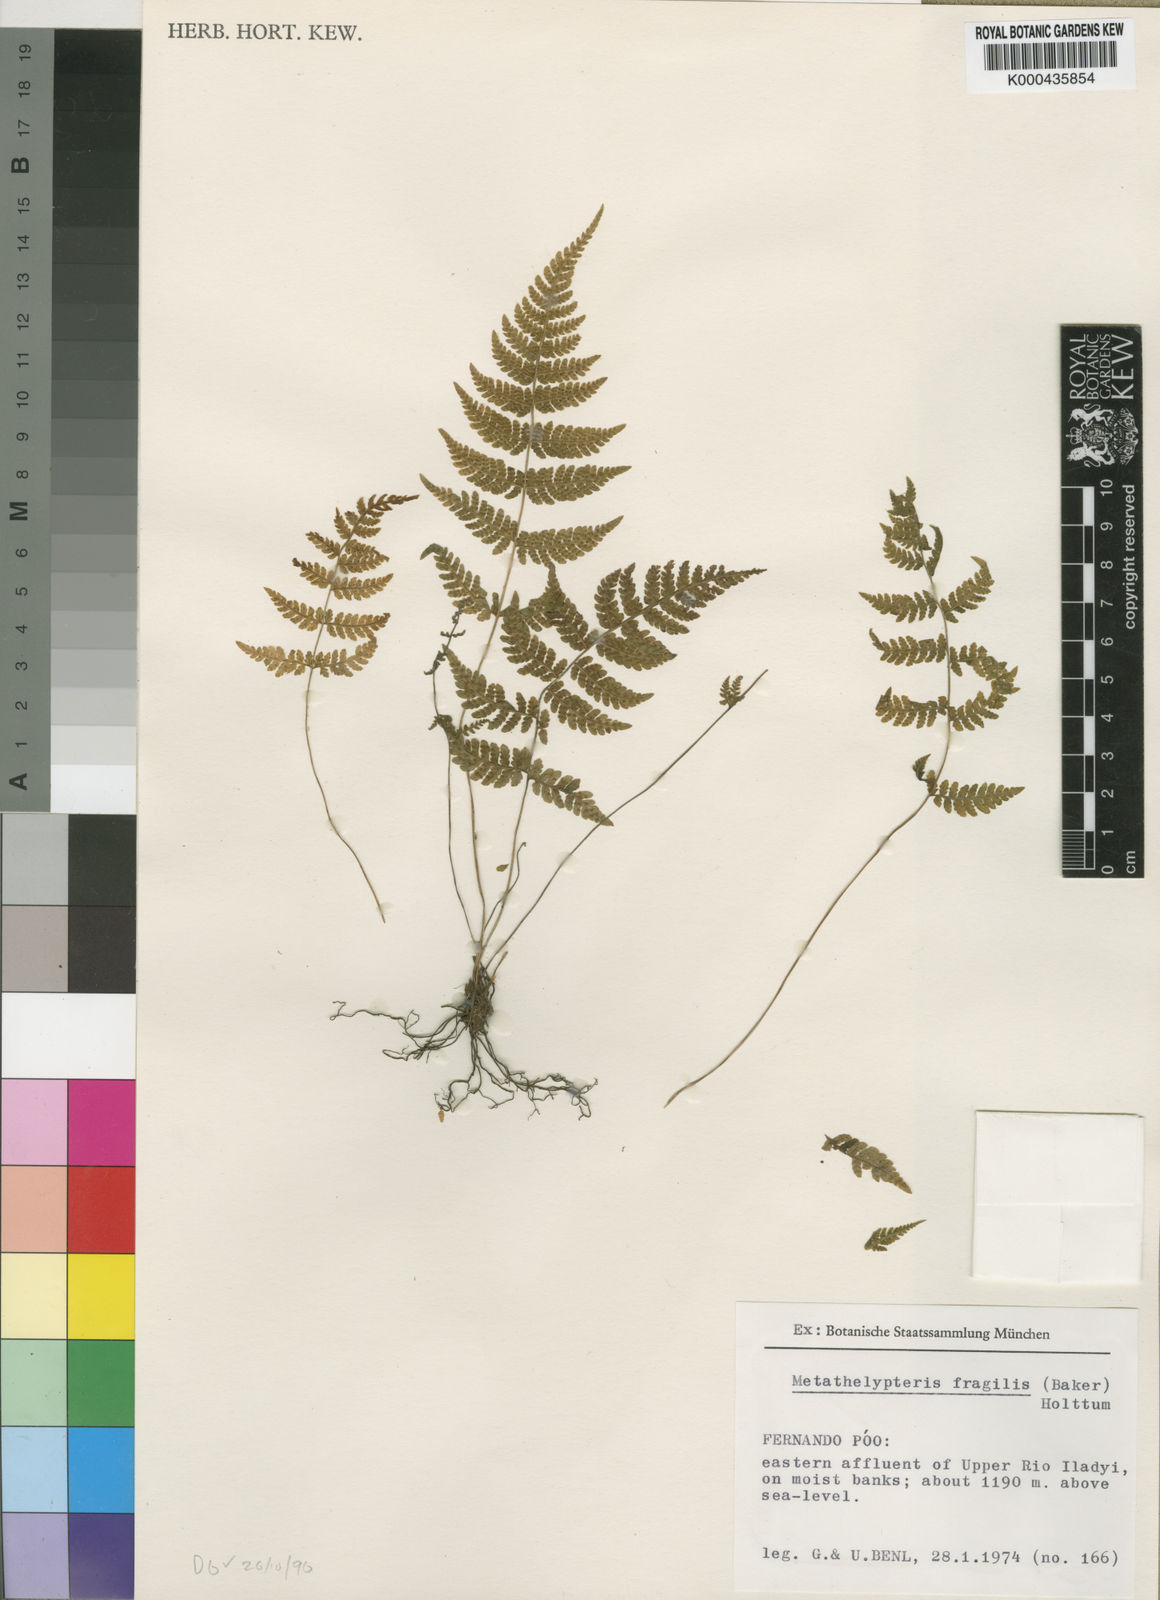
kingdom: Plantae
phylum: Tracheophyta
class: Polypodiopsida
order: Polypodiales
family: Thelypteridaceae
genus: Metathelypteris
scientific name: Metathelypteris fragilis
